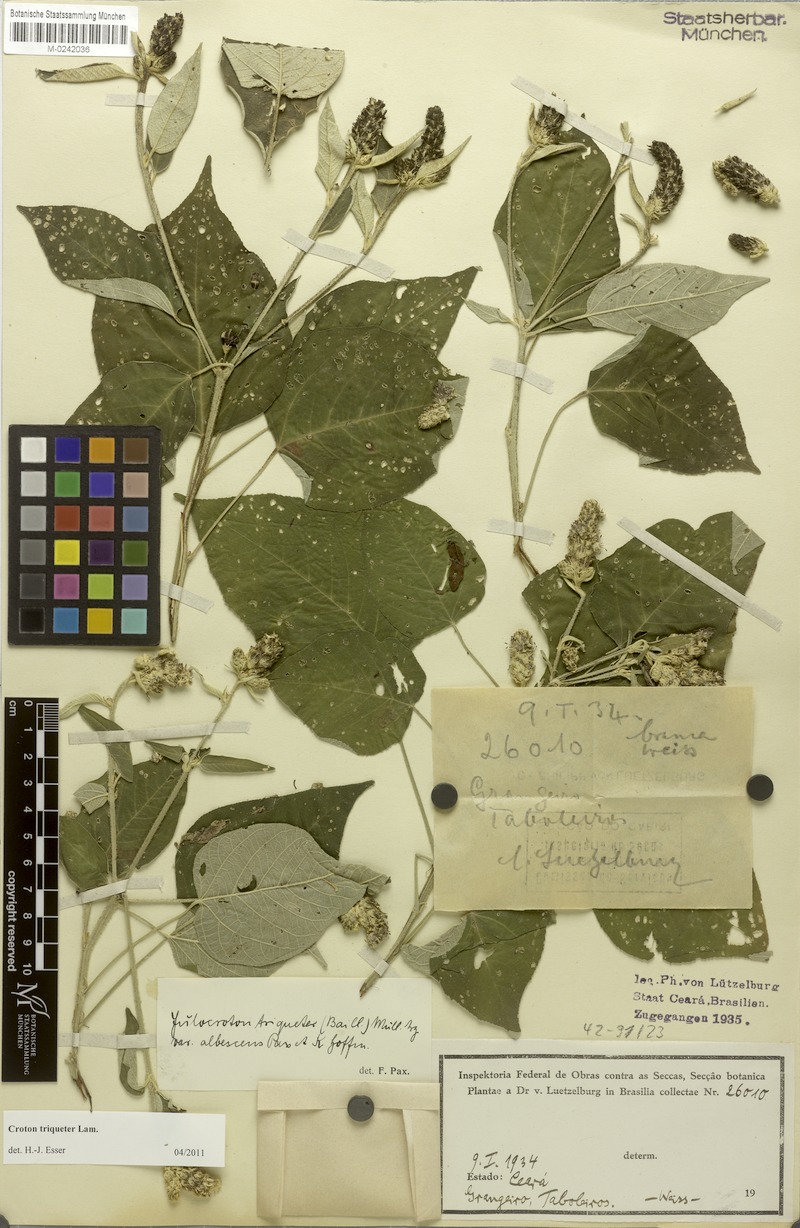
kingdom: Plantae
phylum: Tracheophyta
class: Magnoliopsida
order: Malpighiales
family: Euphorbiaceae
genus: Croton
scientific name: Croton triqueter
